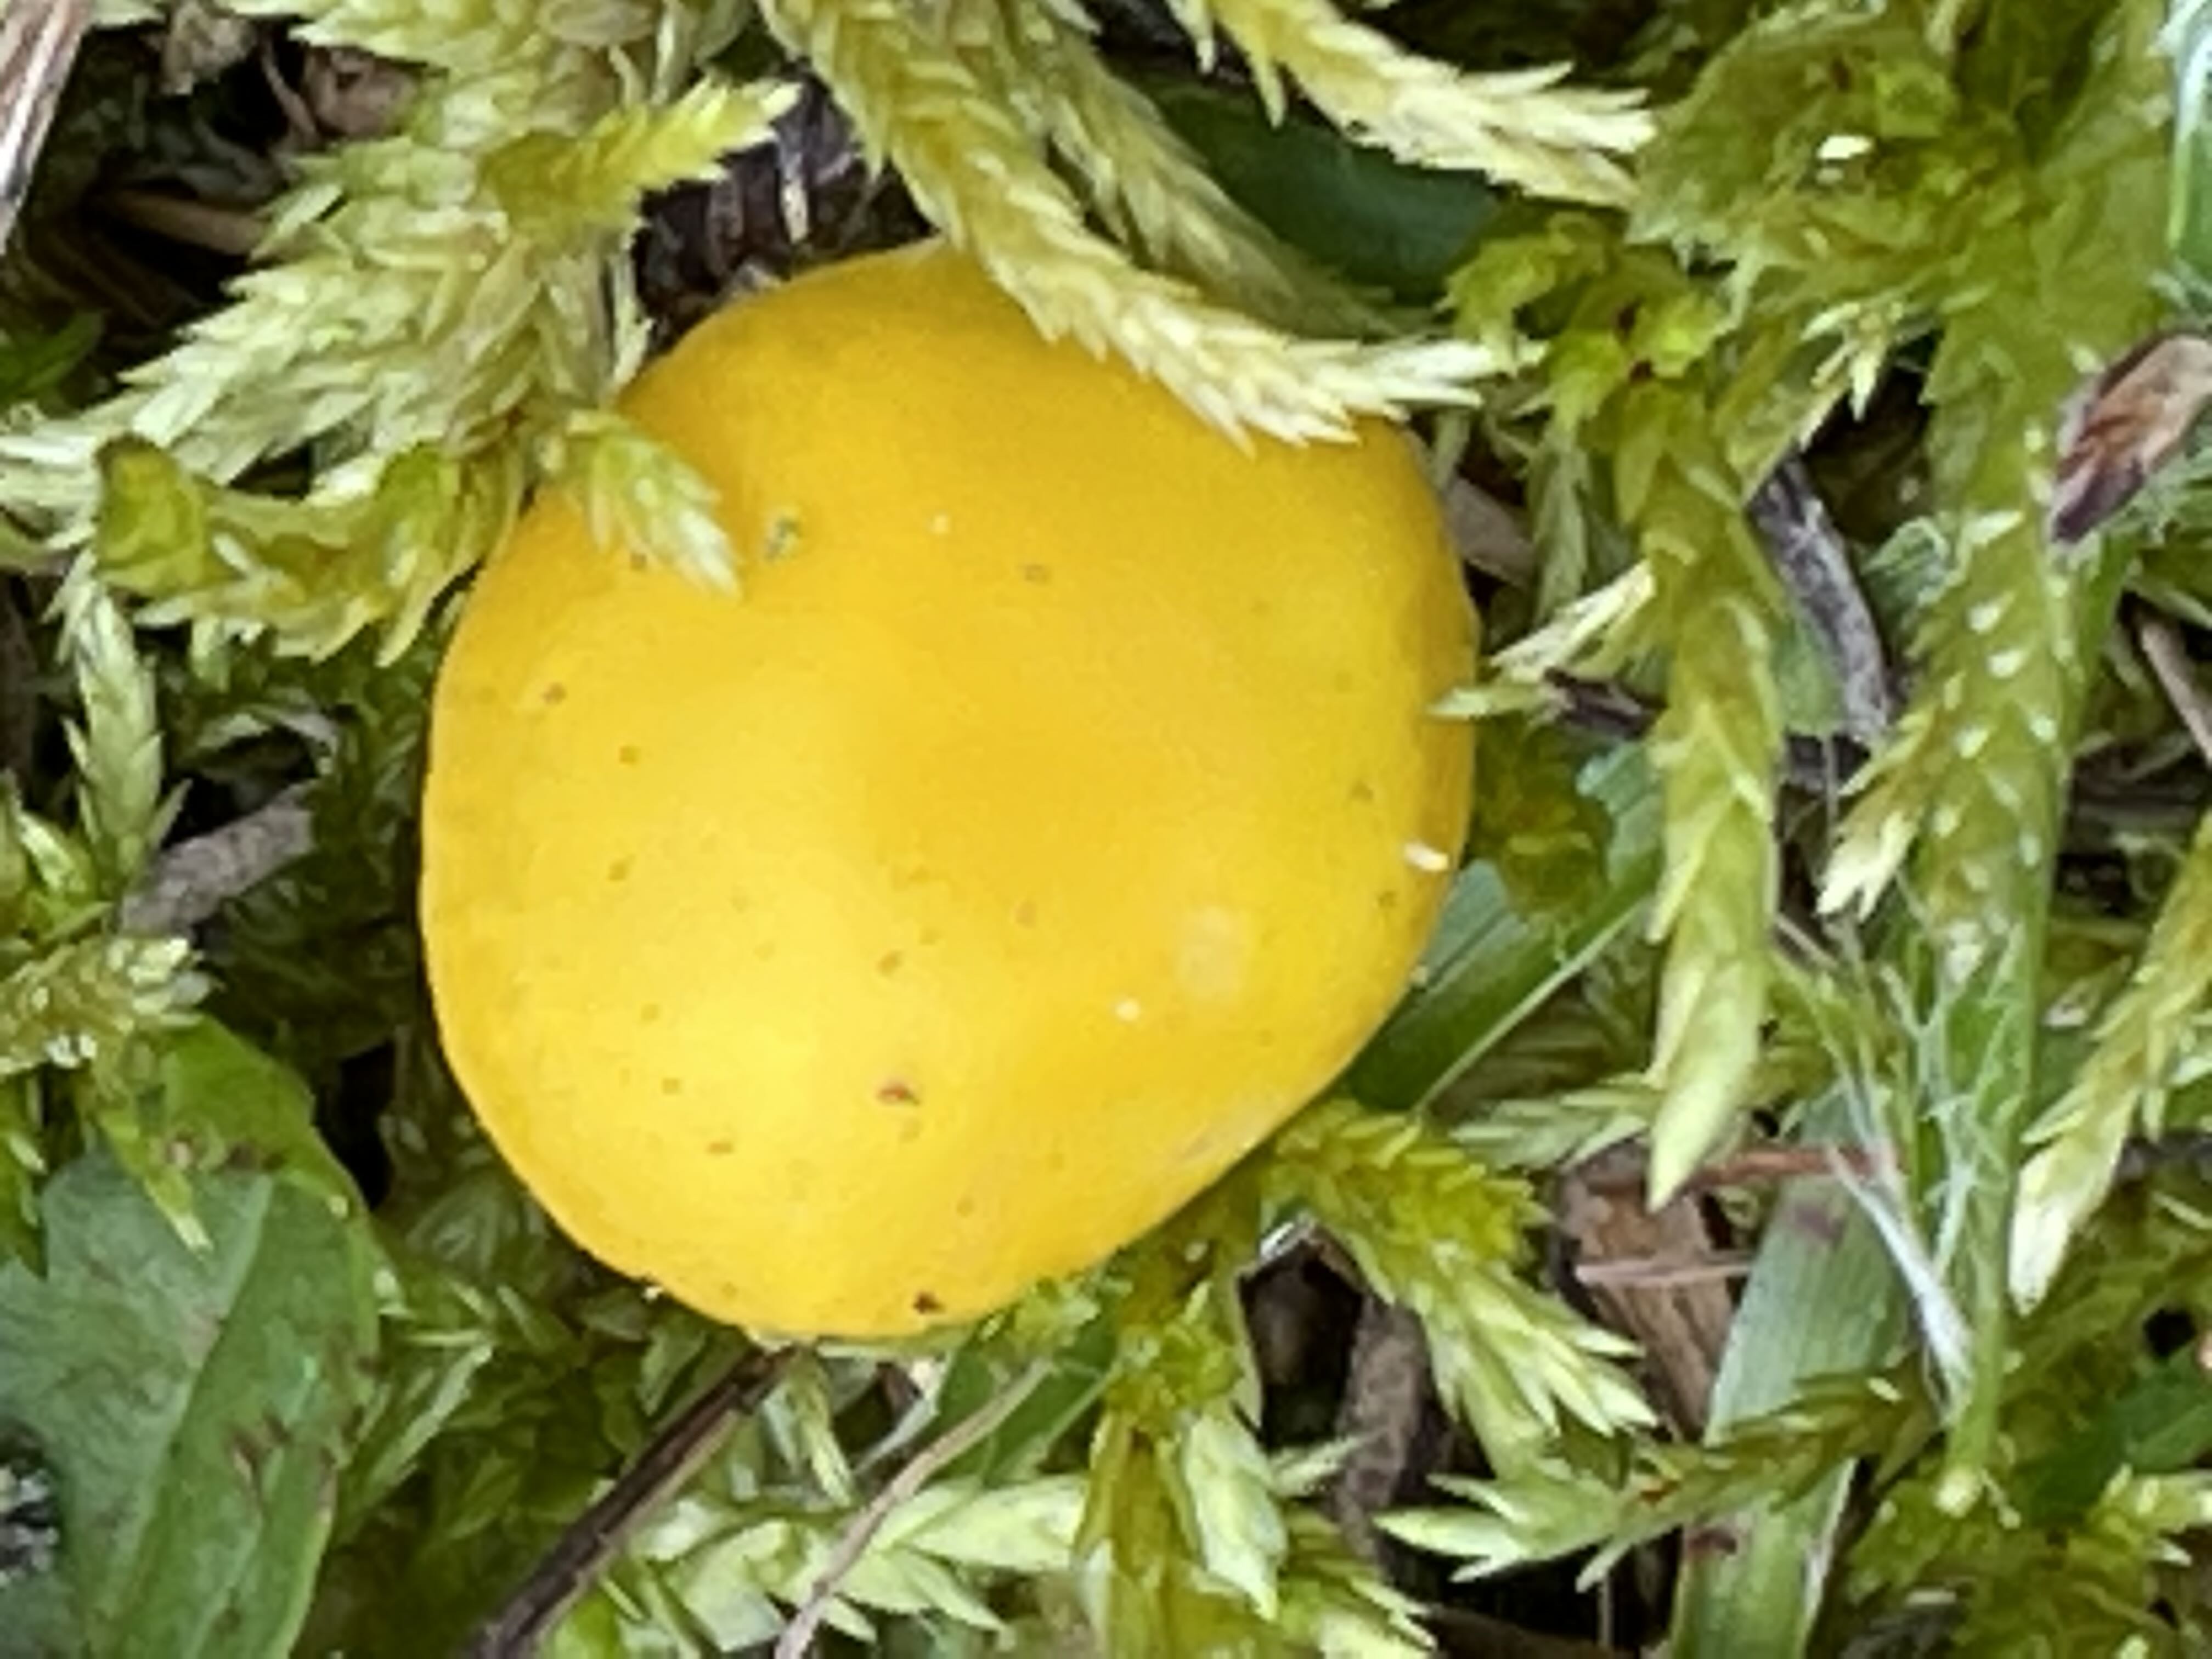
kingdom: Fungi
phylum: Basidiomycota
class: Agaricomycetes
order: Agaricales
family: Hygrophoraceae
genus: Hygrocybe
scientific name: Hygrocybe ceracea
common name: voksgul vokshat
